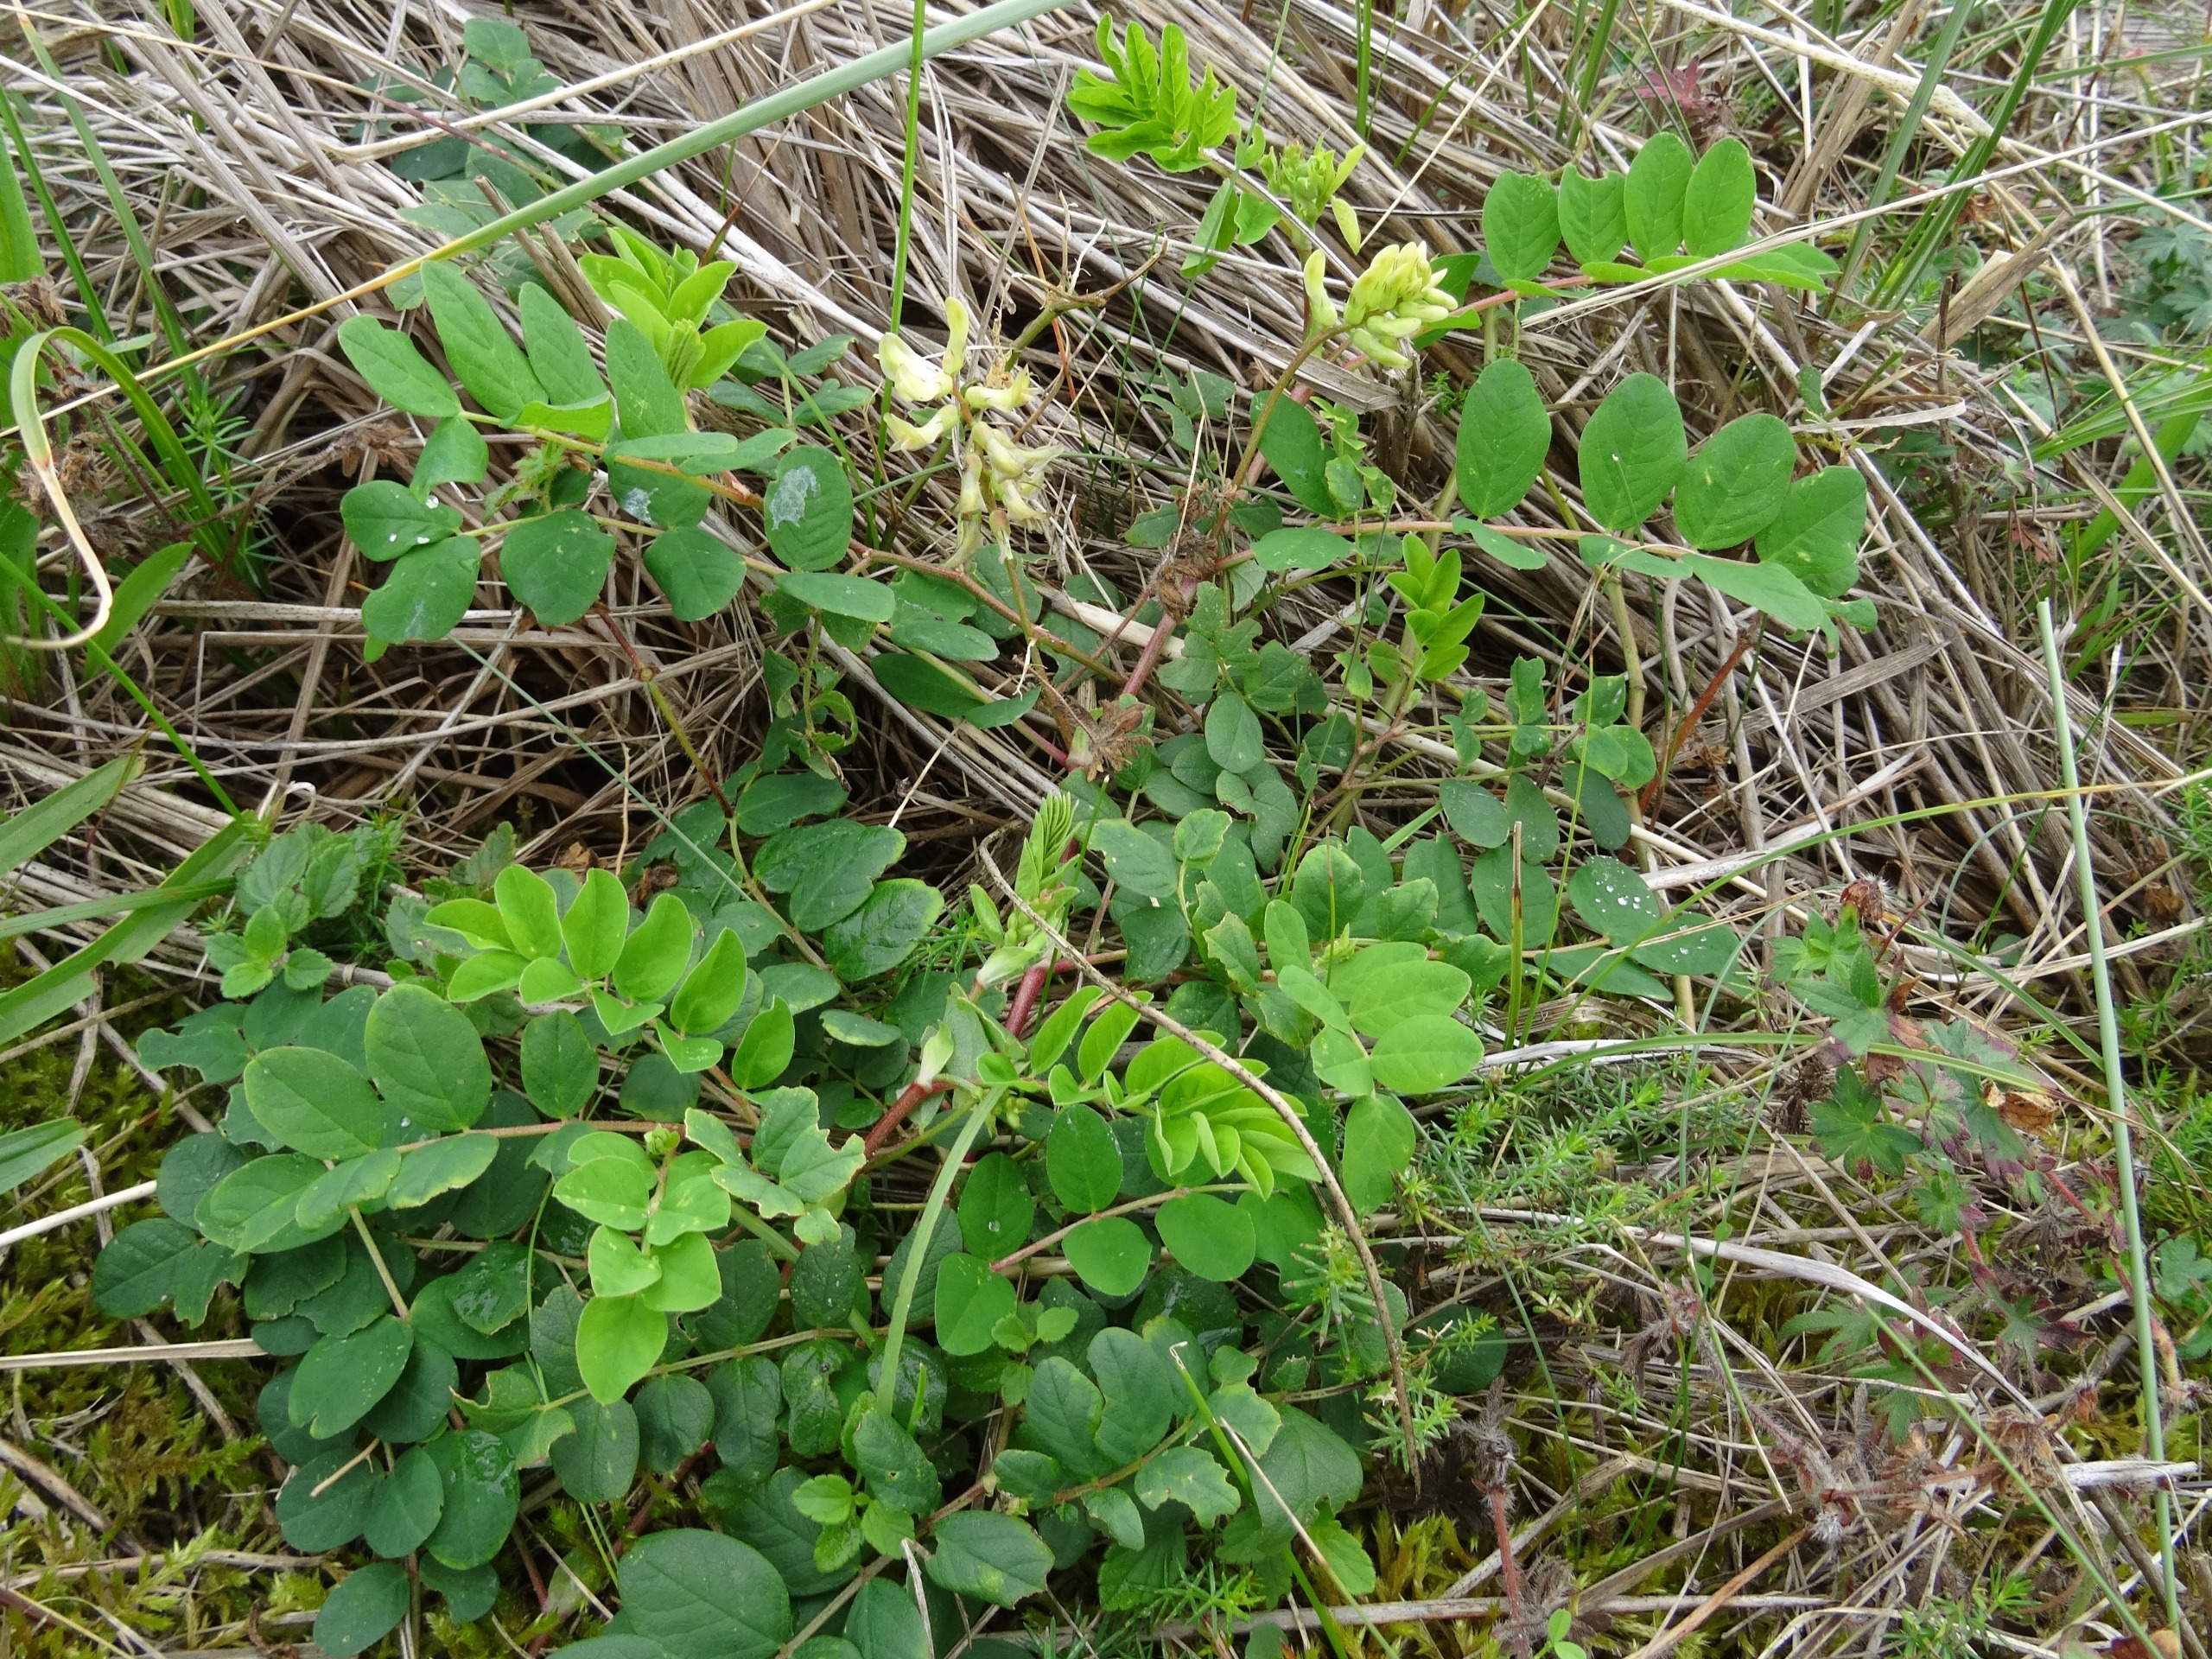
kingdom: Plantae
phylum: Tracheophyta
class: Magnoliopsida
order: Fabales
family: Fabaceae
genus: Astragalus
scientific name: Astragalus glycyphyllos
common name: Sød astragel
